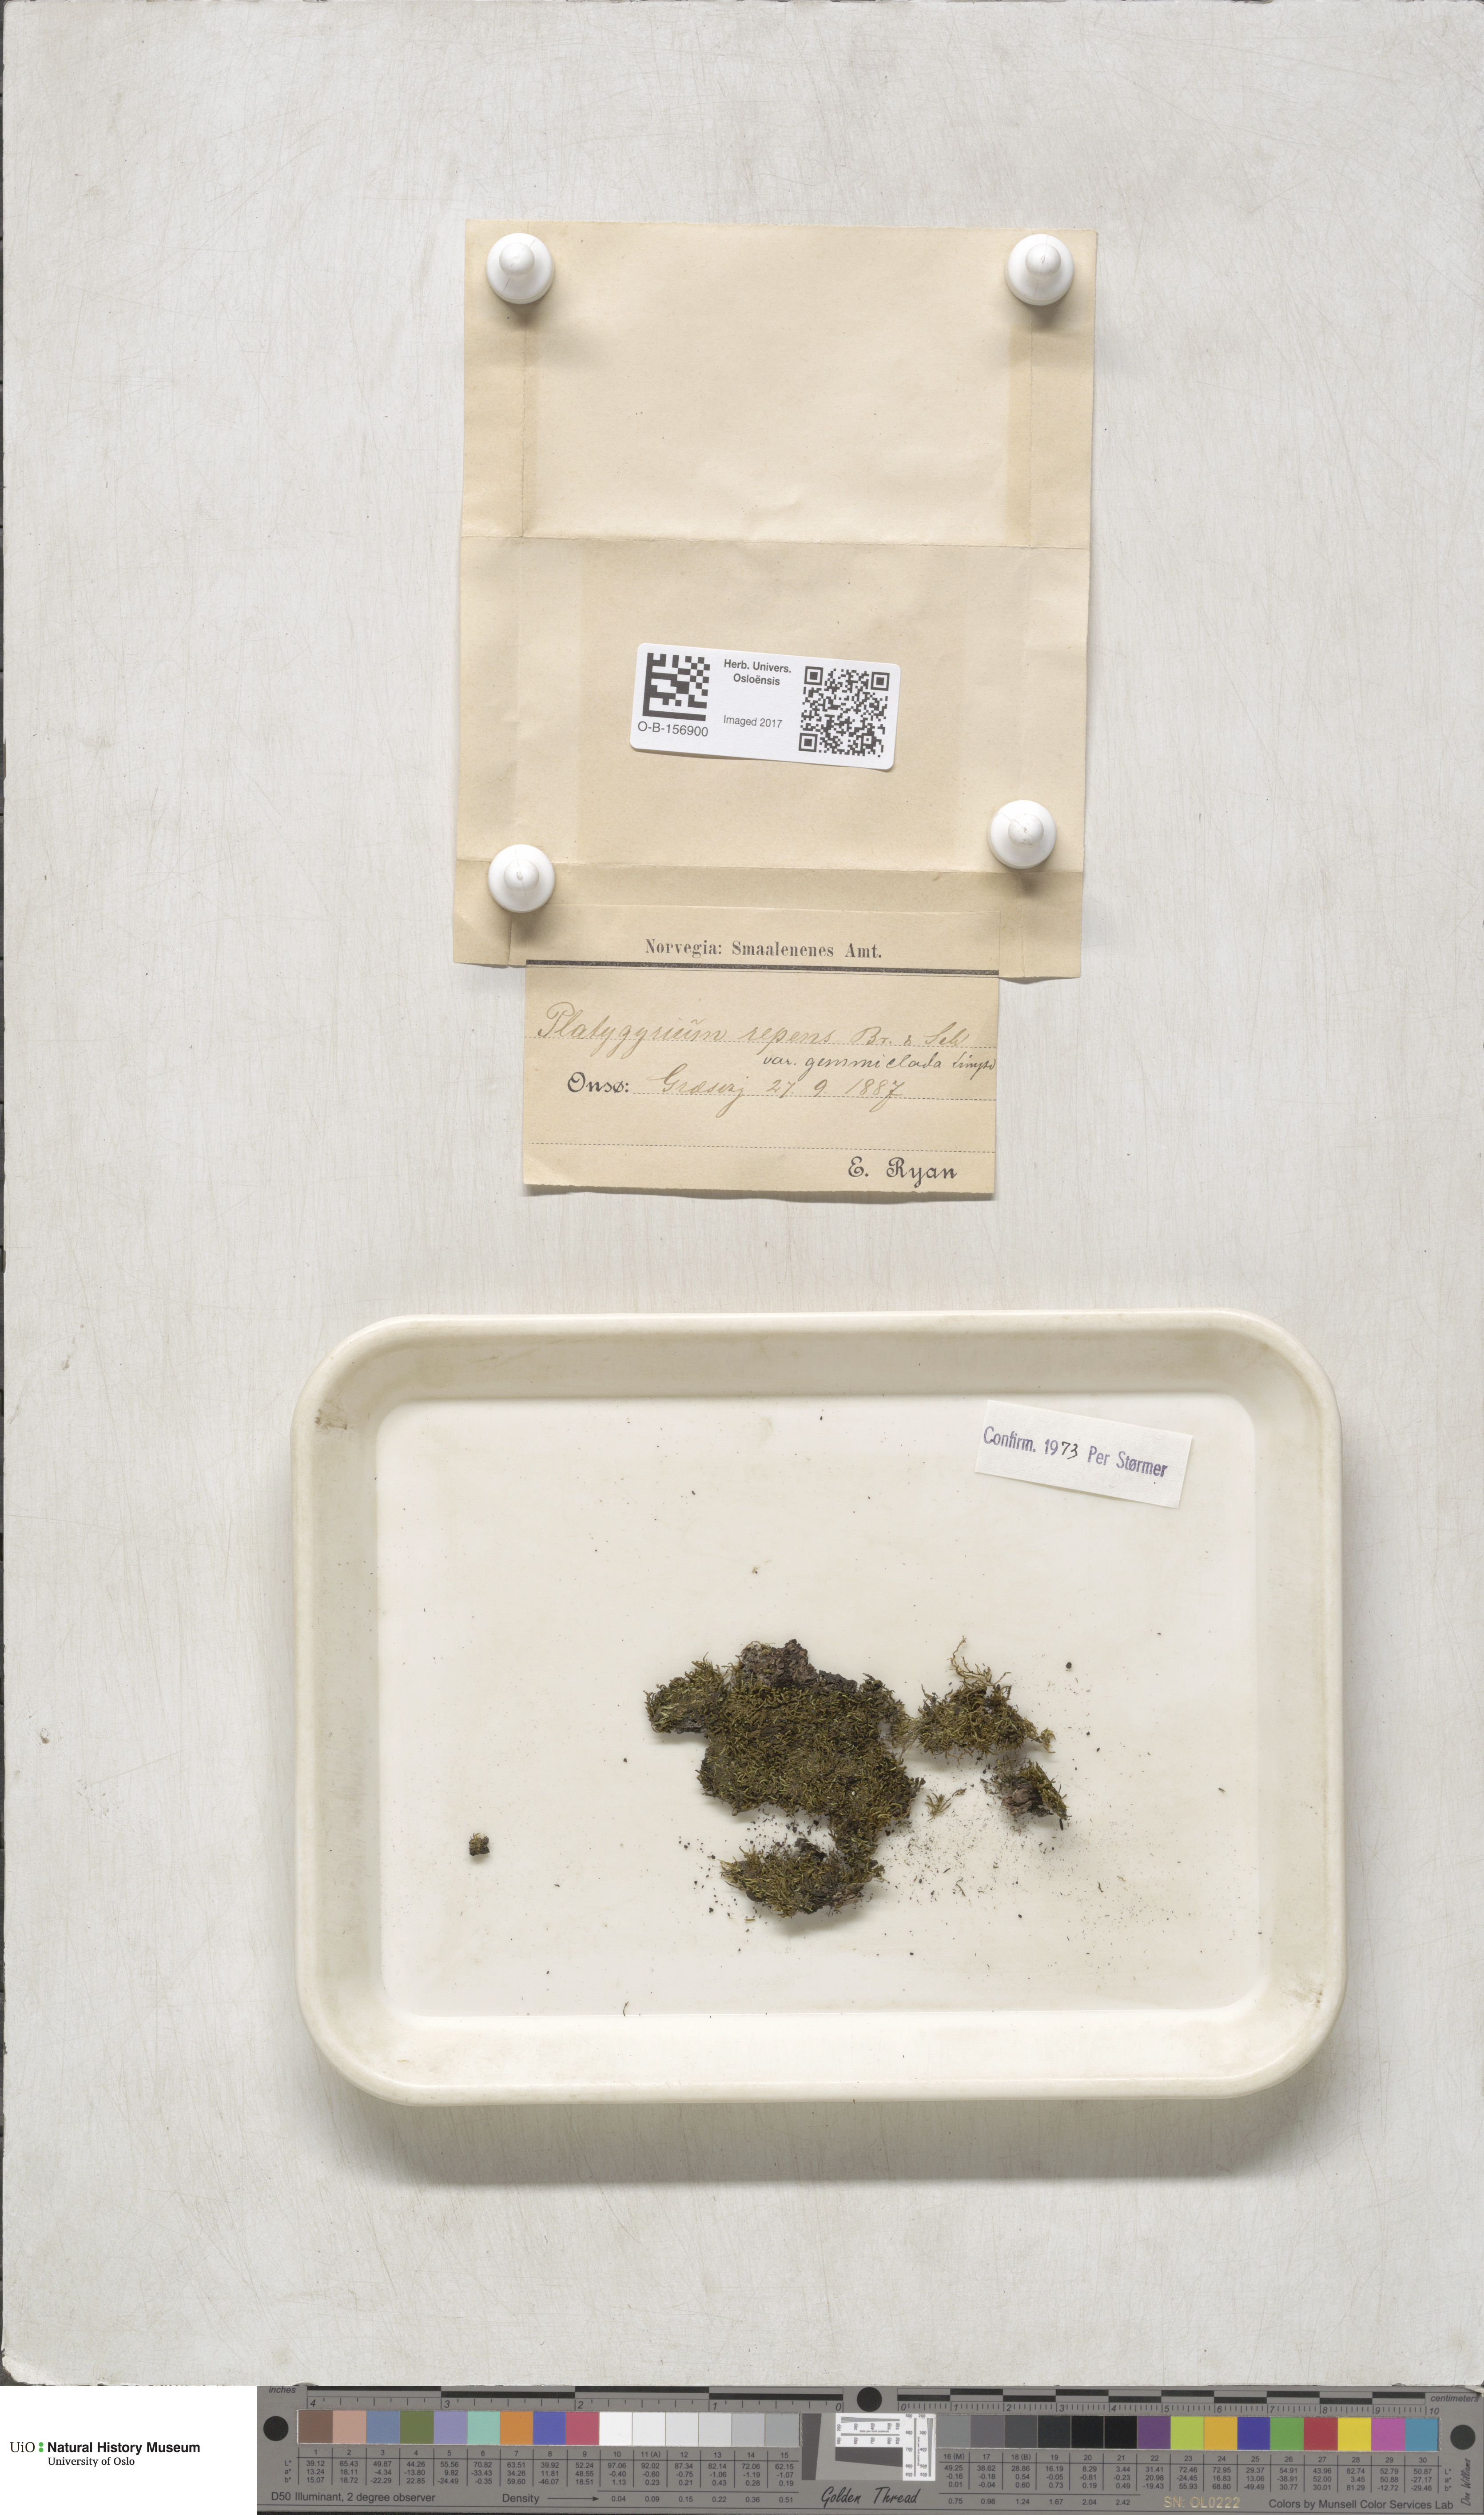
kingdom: Plantae
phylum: Bryophyta
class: Bryopsida
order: Hypnales
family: Pylaisiadelphaceae
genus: Platygyrium
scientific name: Platygyrium repens
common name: Flat-brocade moss
